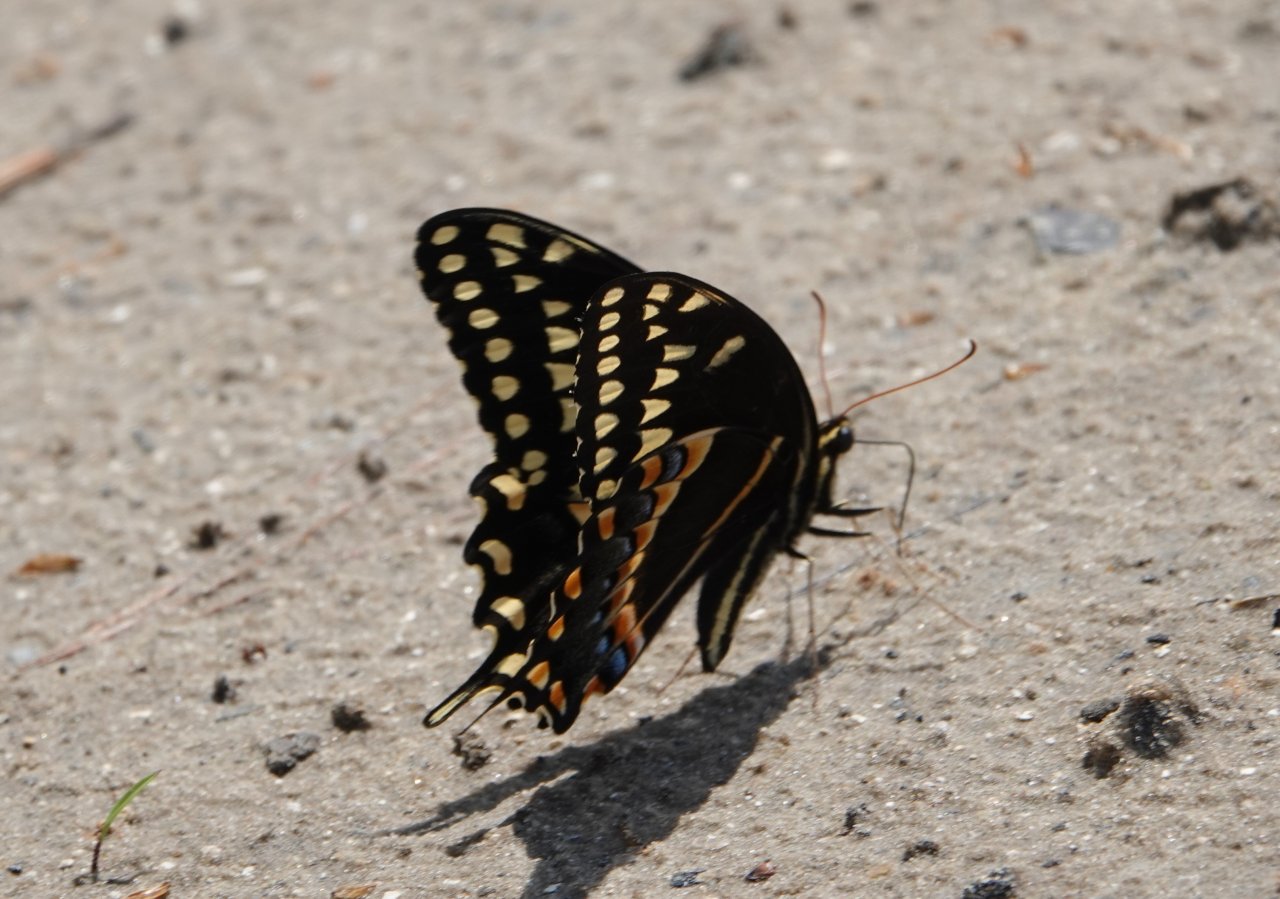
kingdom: Animalia
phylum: Arthropoda
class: Insecta
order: Lepidoptera
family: Papilionidae
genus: Pterourus
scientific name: Pterourus palamedes
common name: Palamedes Swallowtail
